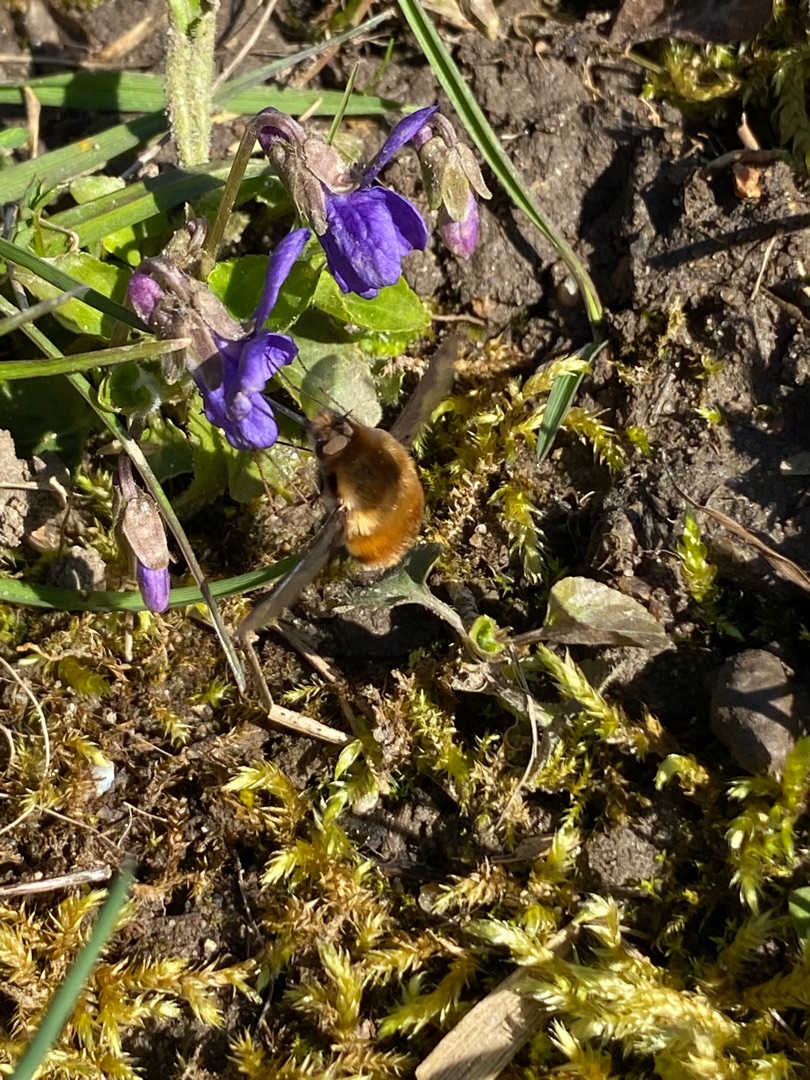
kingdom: Animalia
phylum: Arthropoda
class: Insecta
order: Diptera
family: Bombyliidae
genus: Bombylius
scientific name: Bombylius major
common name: Stor humleflue
